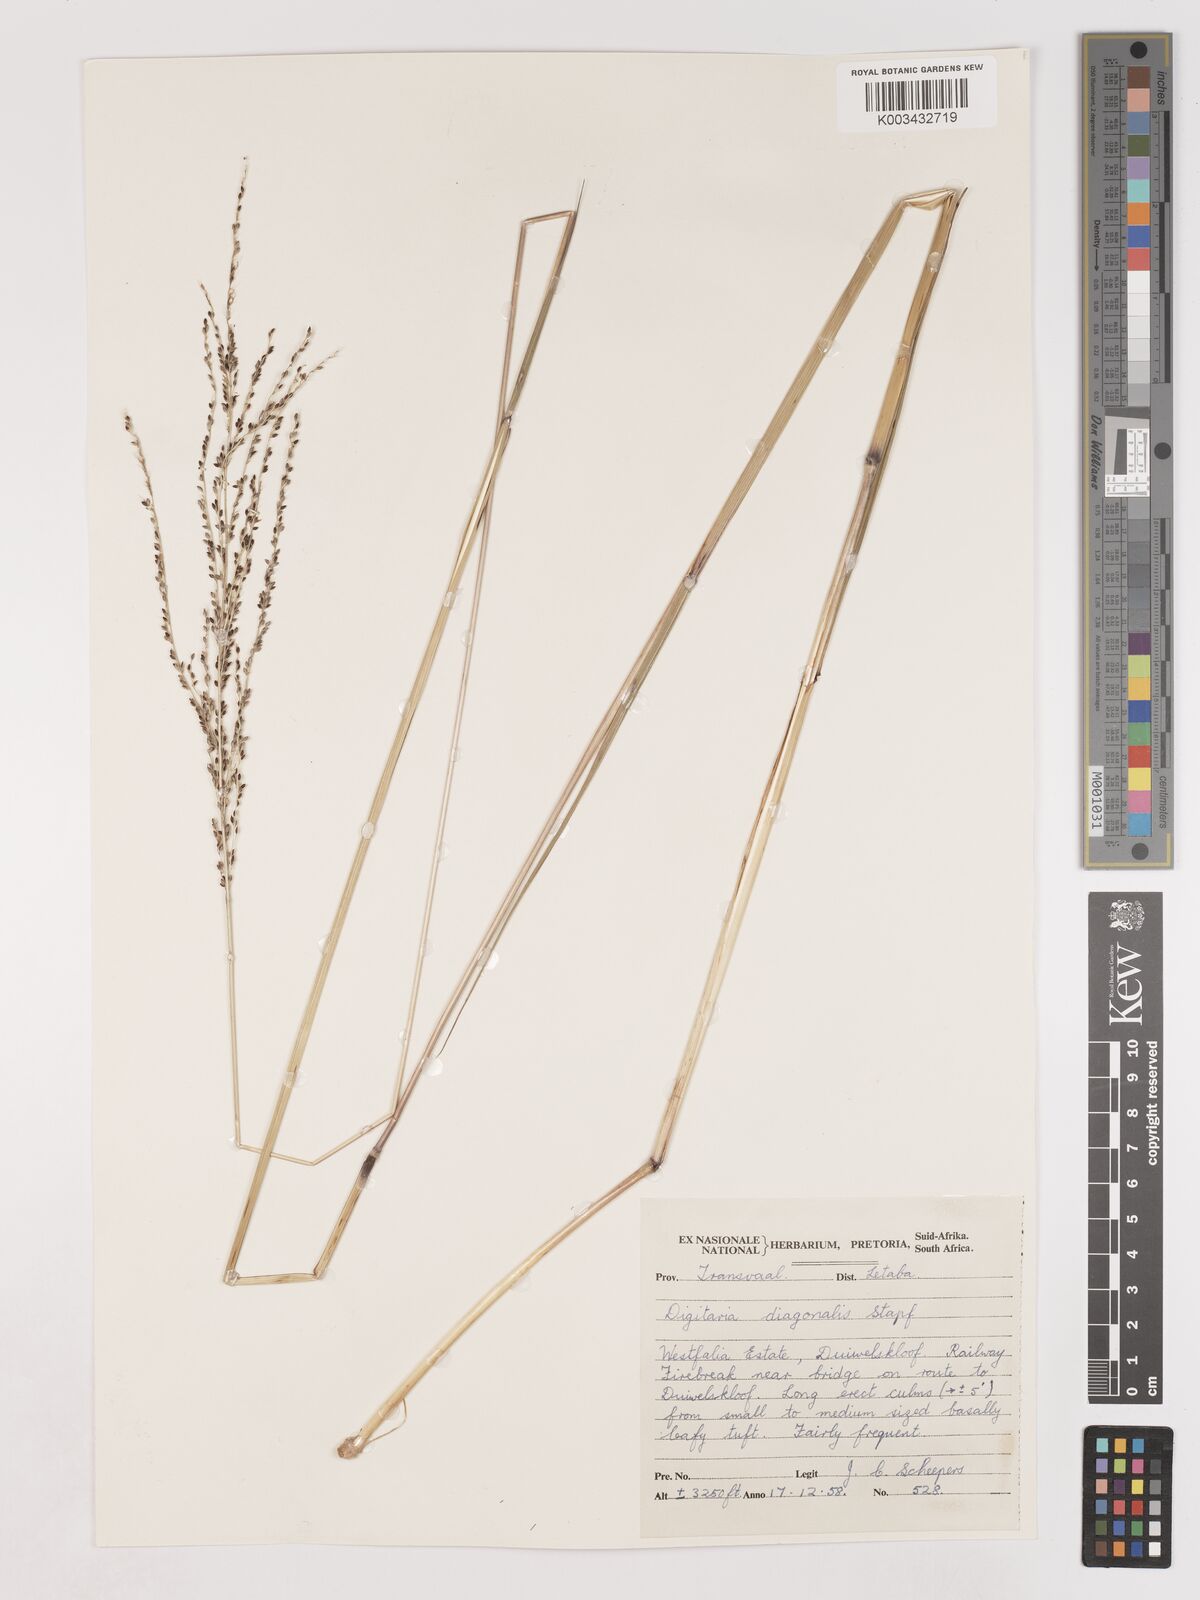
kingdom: Plantae
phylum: Tracheophyta
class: Liliopsida
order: Poales
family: Poaceae
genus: Digitaria
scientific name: Digitaria diagonalis
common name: Brown-seed finger grass
